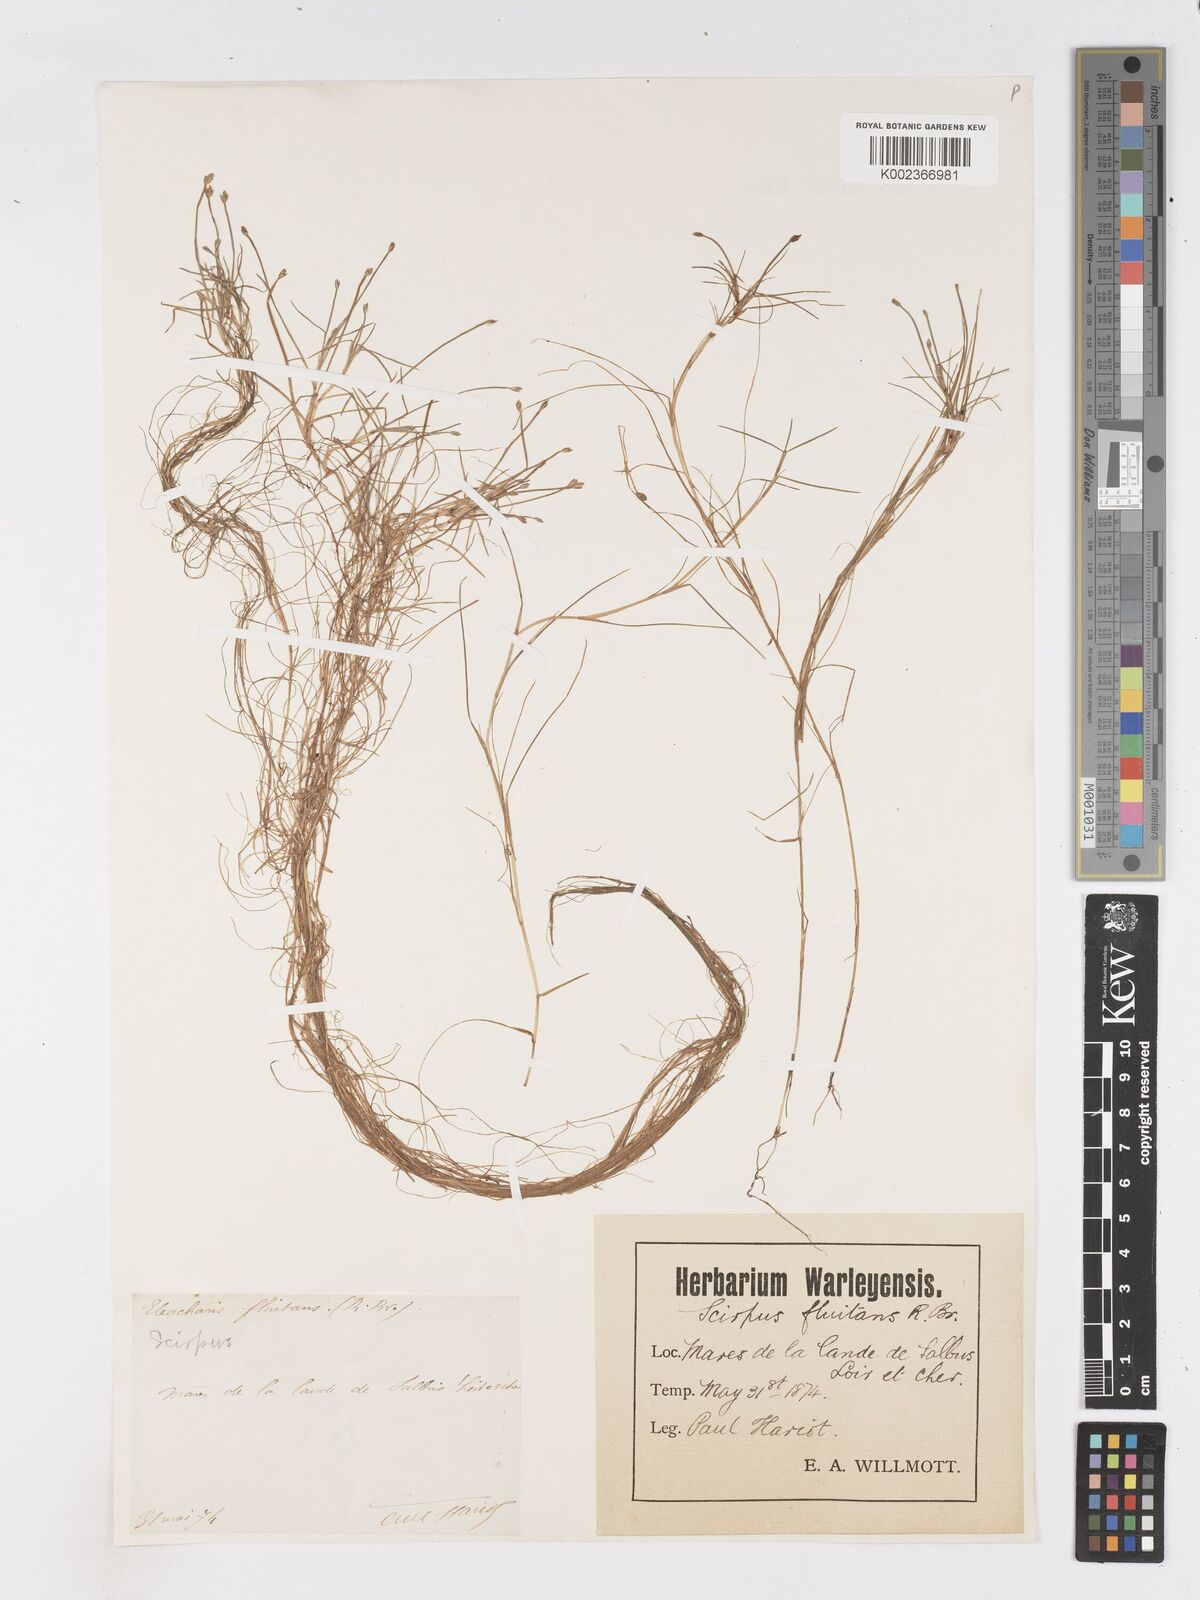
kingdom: Plantae
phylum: Tracheophyta
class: Liliopsida
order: Poales
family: Cyperaceae
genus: Isolepis
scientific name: Isolepis fluitans
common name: Floating club-rush
